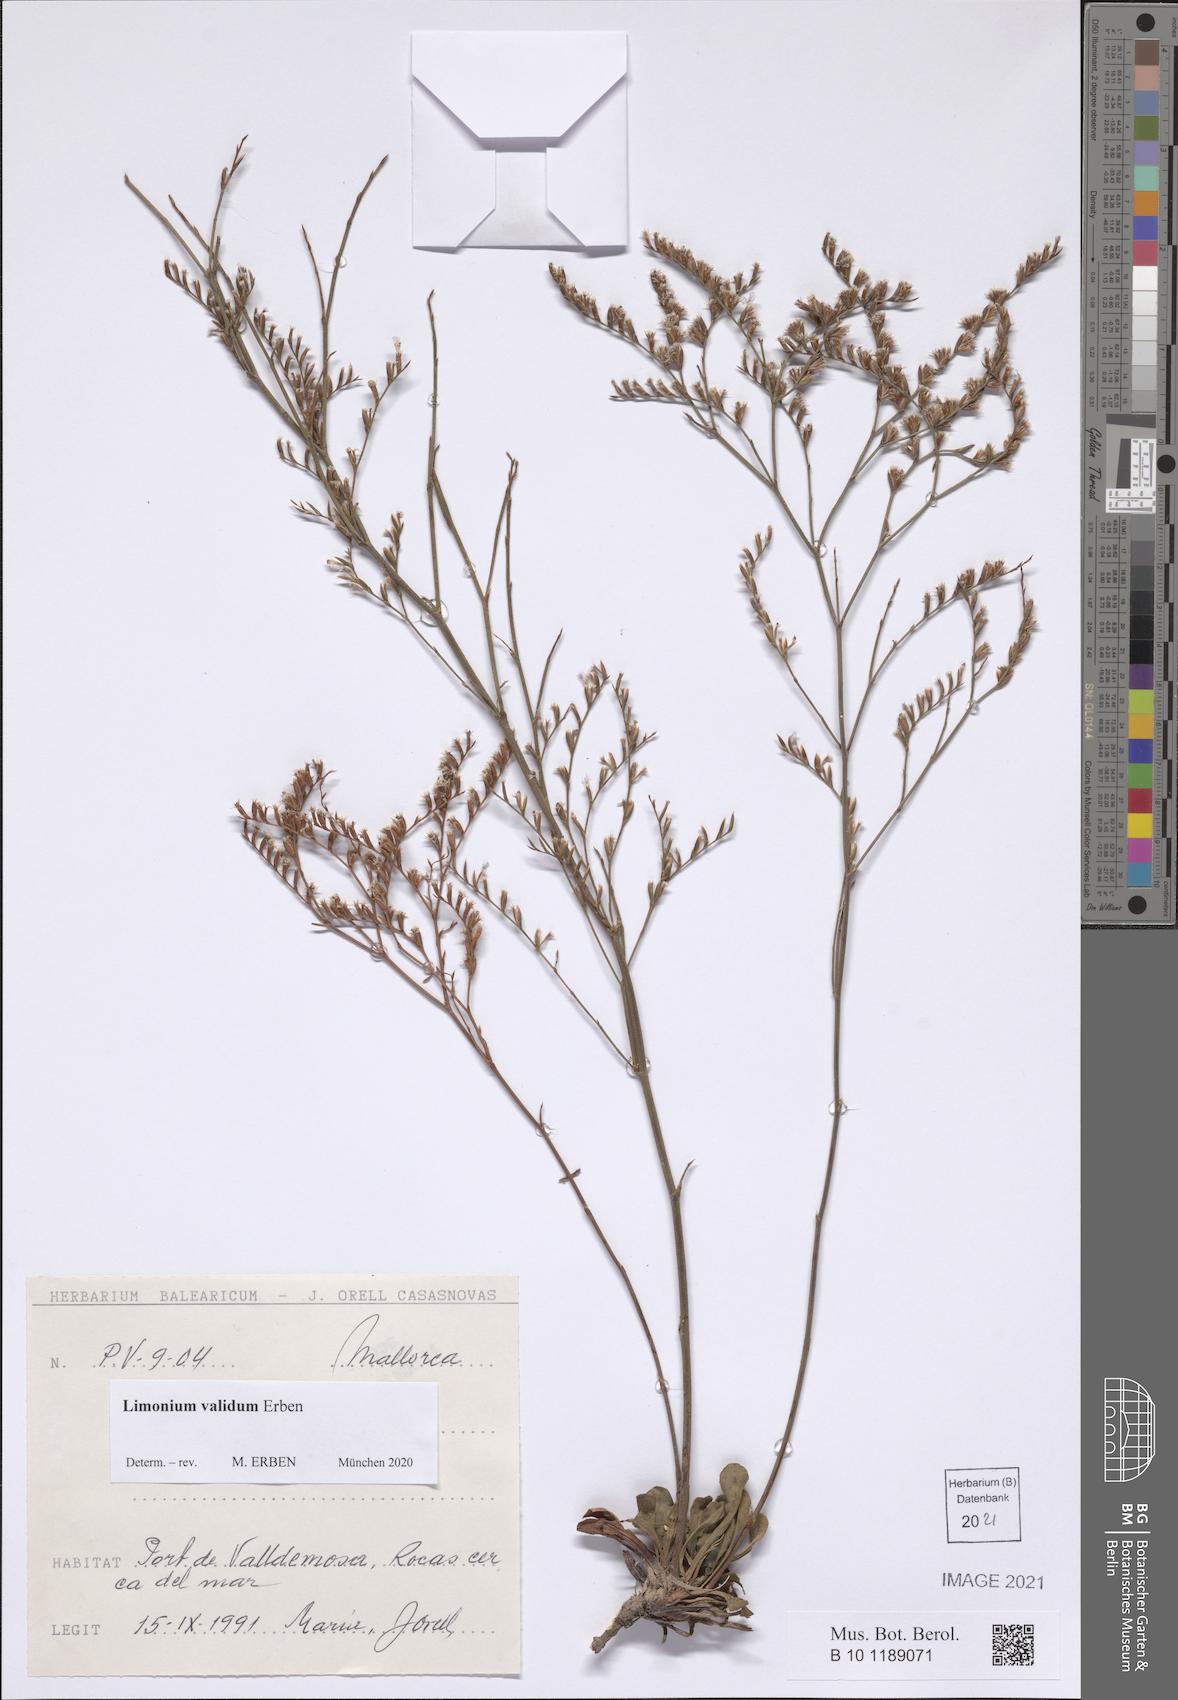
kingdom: Plantae
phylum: Tracheophyta
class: Magnoliopsida
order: Caryophyllales
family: Plumbaginaceae
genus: Limonium
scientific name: Limonium validum
